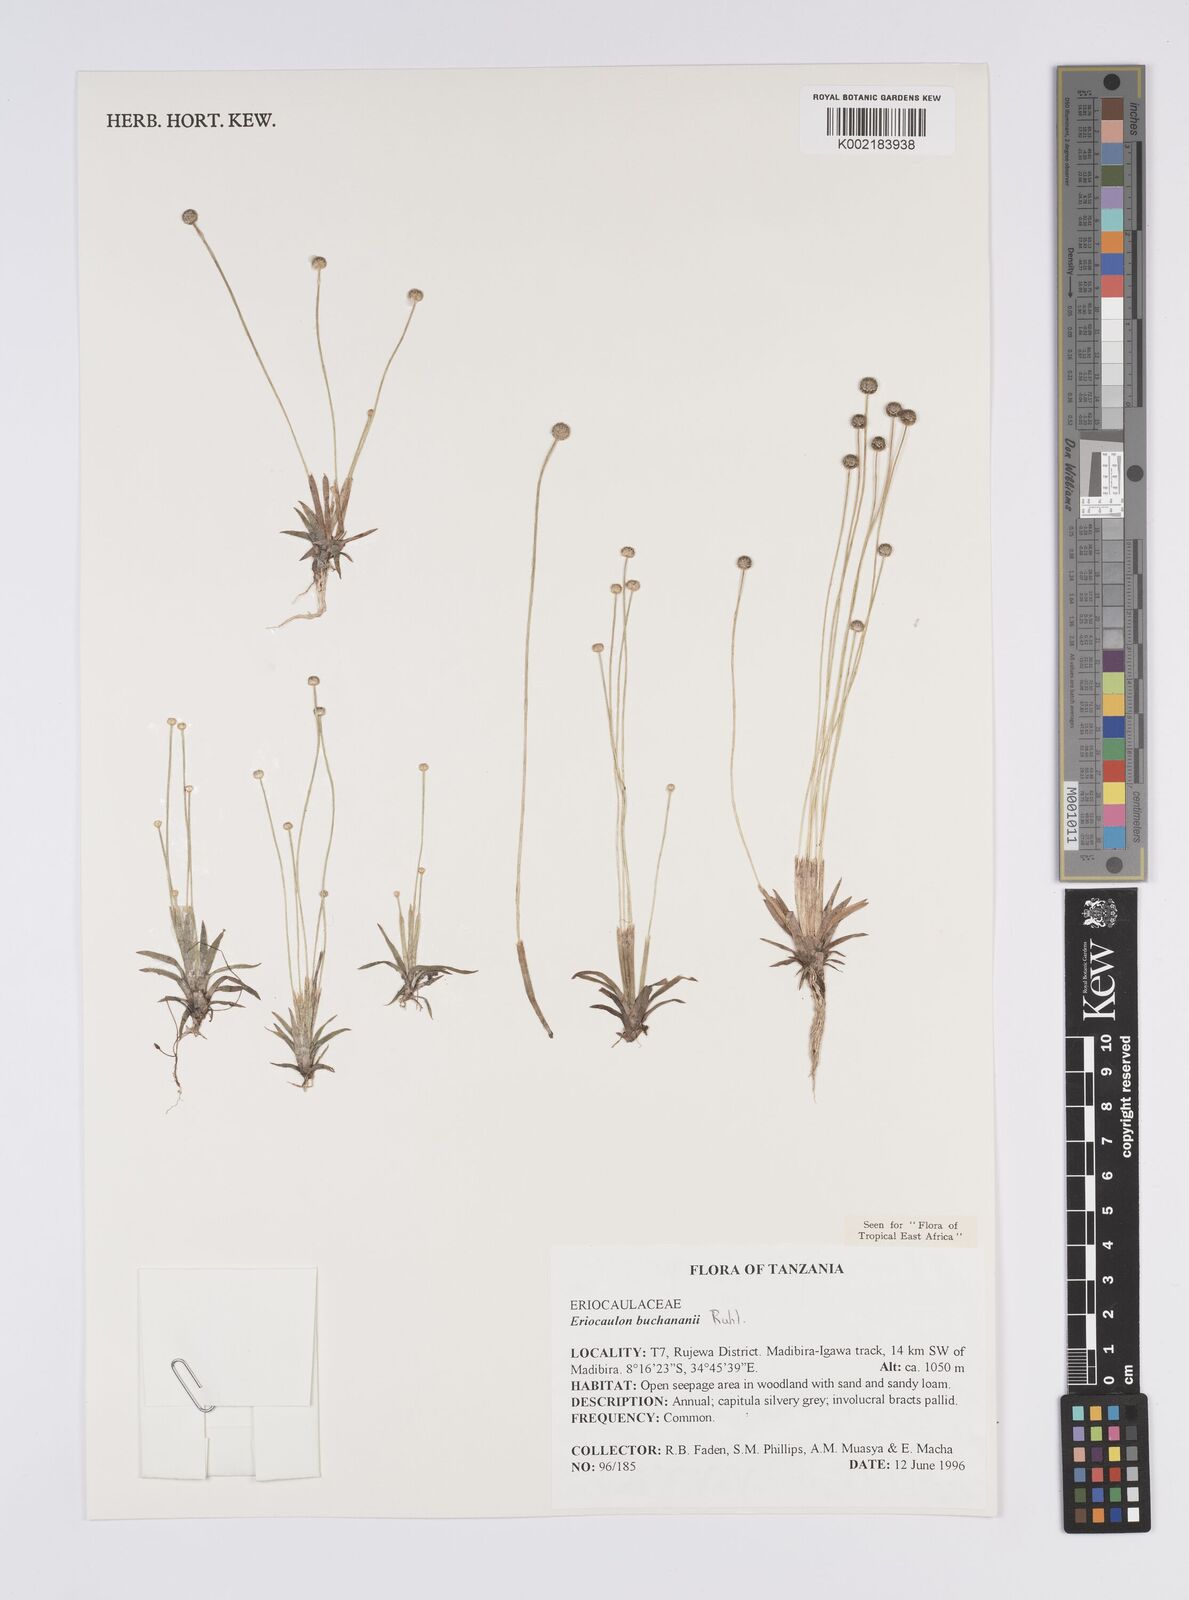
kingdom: Plantae
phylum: Tracheophyta
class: Liliopsida
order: Poales
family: Eriocaulaceae
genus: Eriocaulon
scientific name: Eriocaulon buchananii
